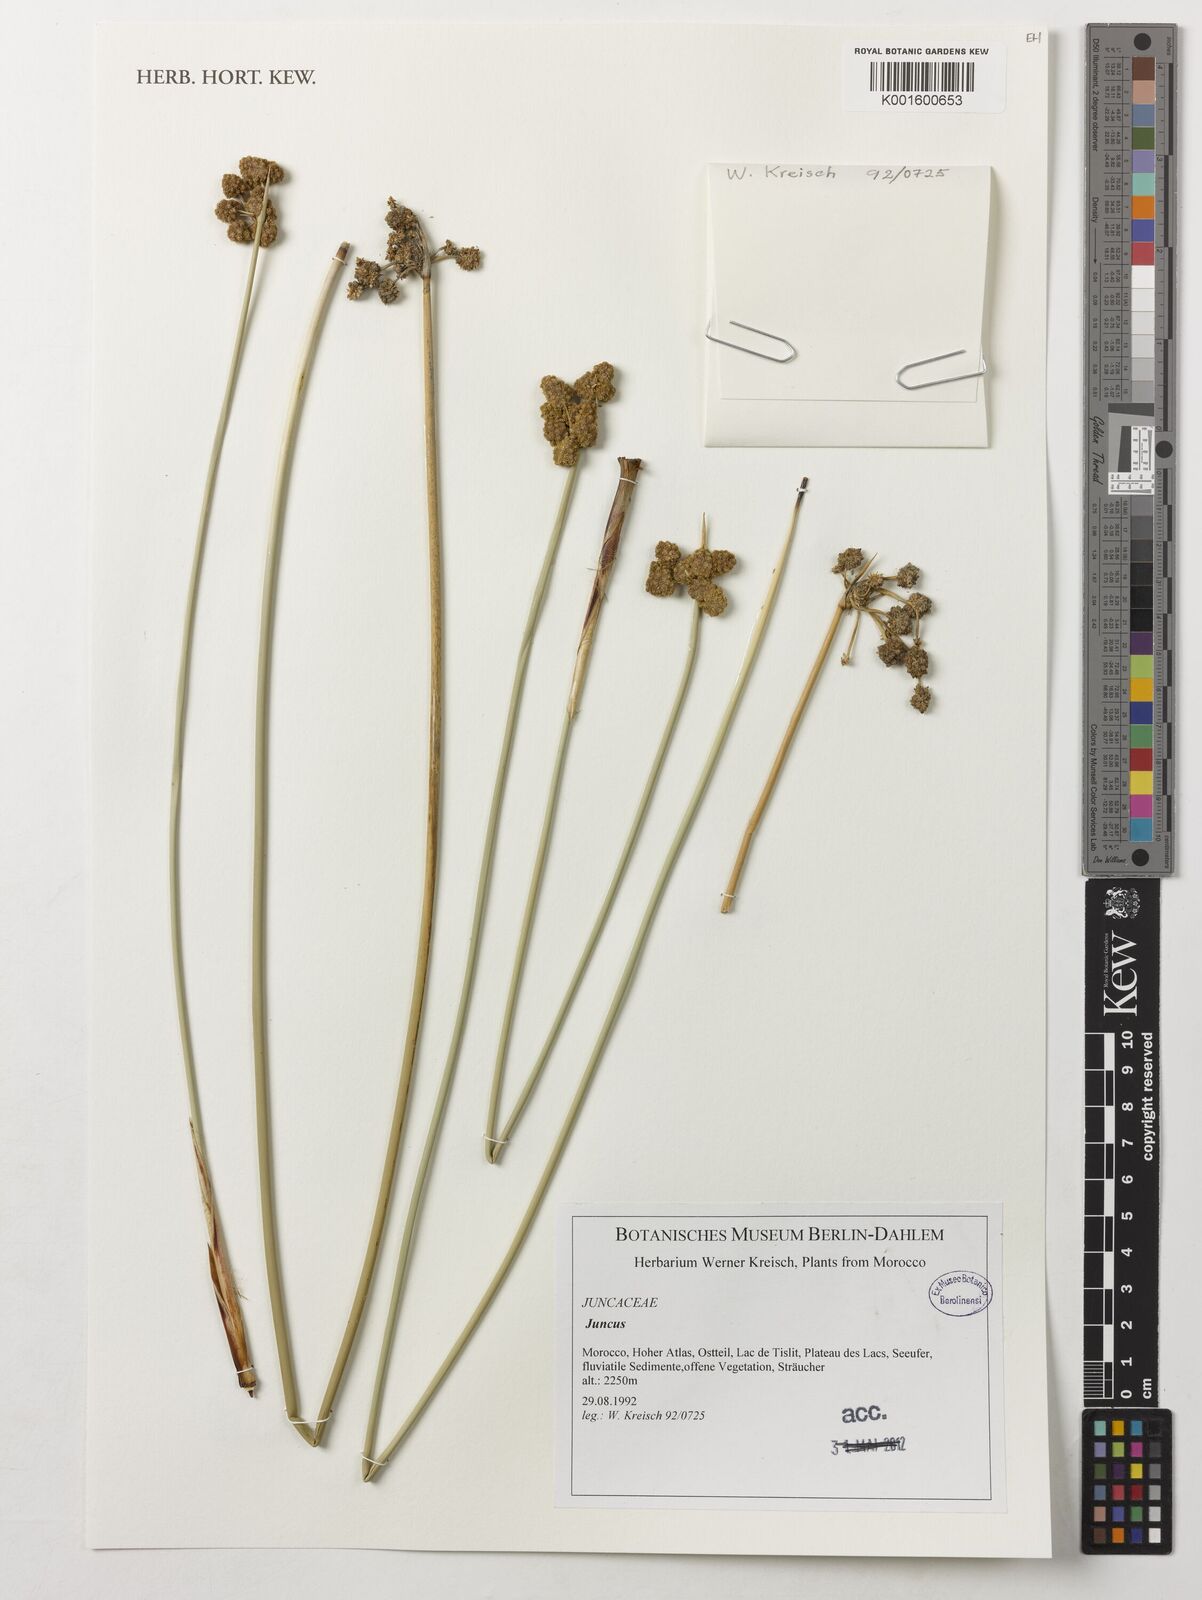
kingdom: Plantae
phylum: Tracheophyta
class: Liliopsida
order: Poales
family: Juncaceae
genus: Juncus
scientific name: Juncus
